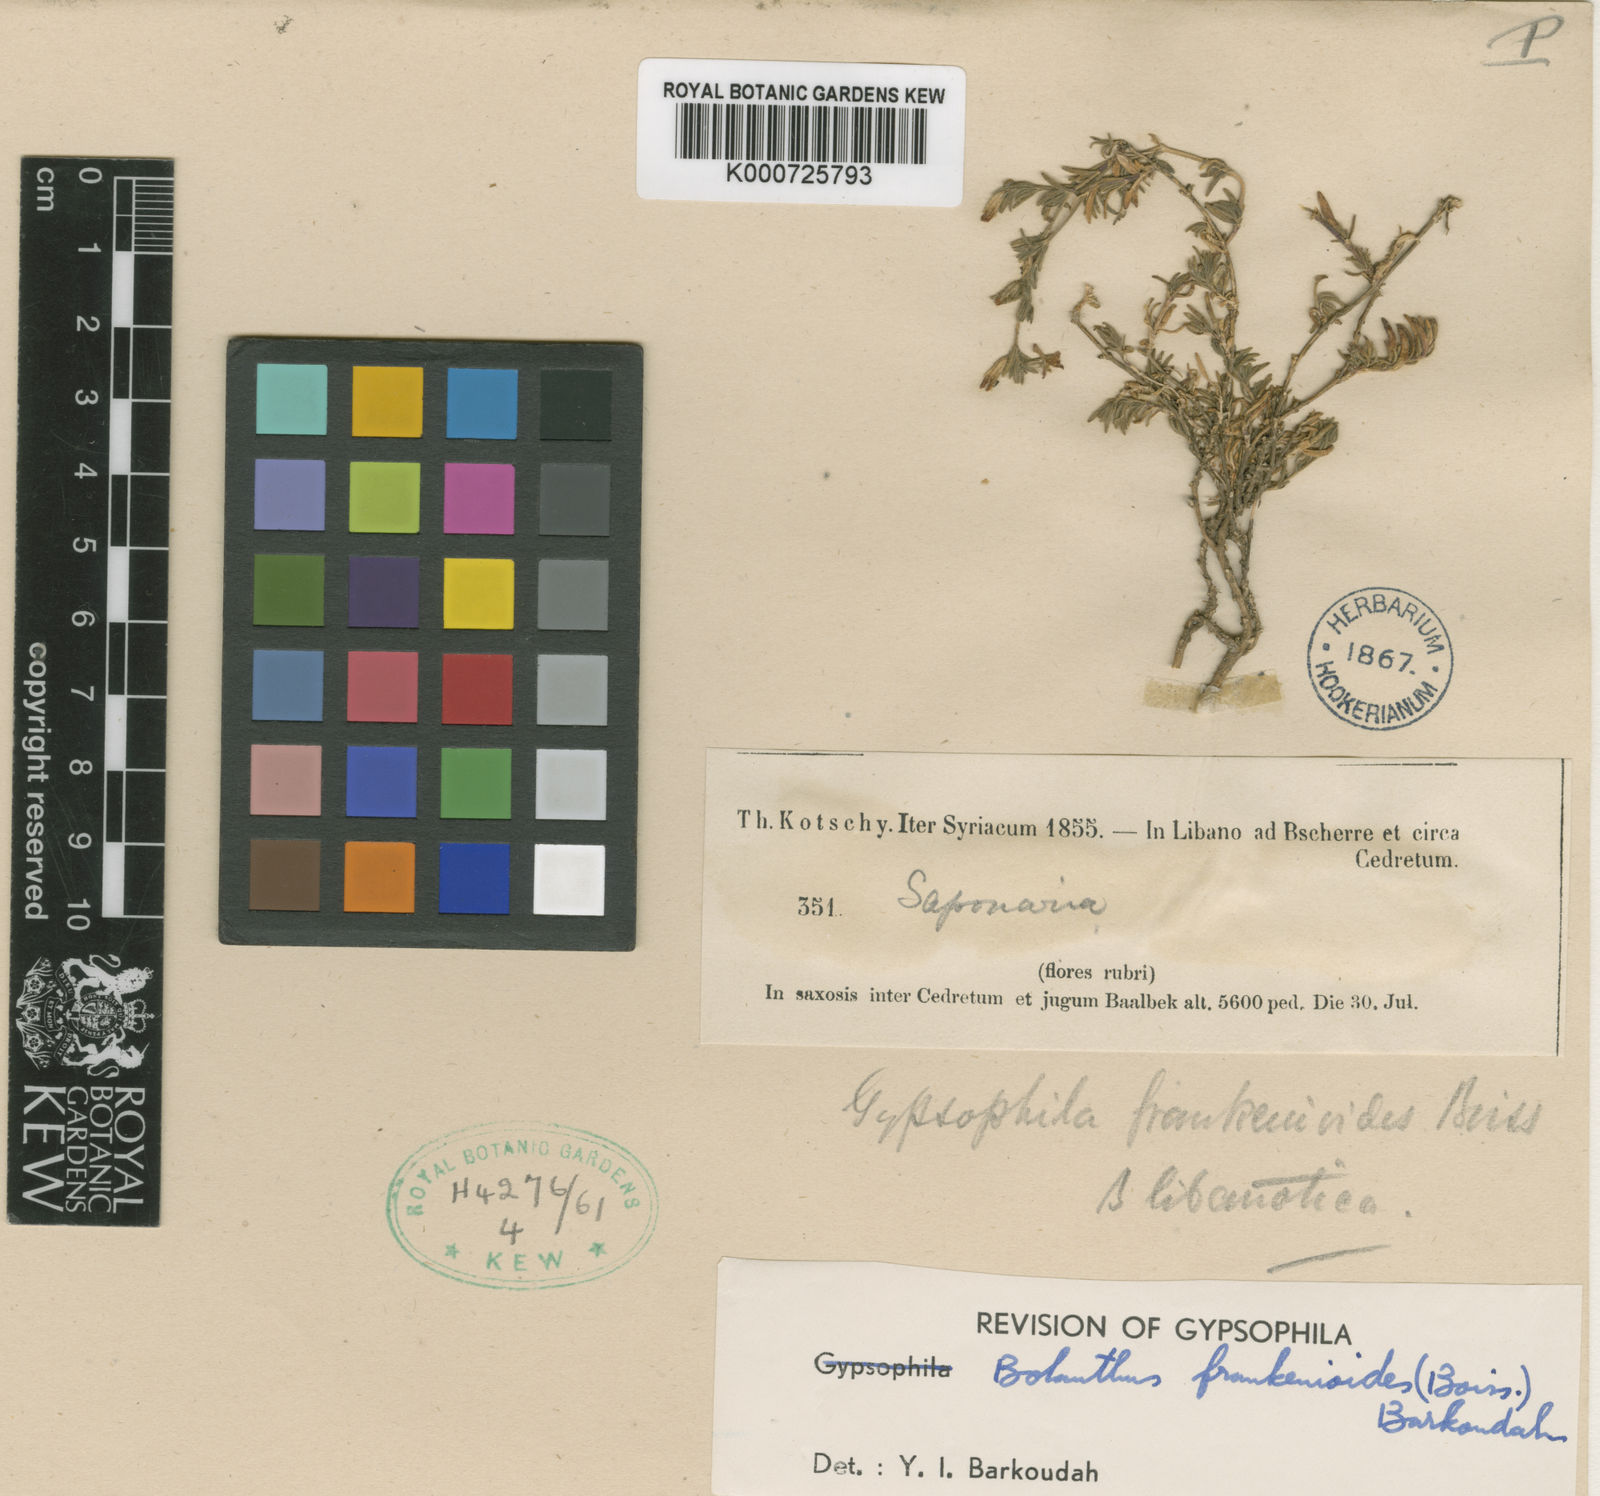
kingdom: Plantae
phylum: Tracheophyta
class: Magnoliopsida
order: Caryophyllales
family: Caryophyllaceae
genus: Bolanthus
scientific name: Bolanthus frankenioides
